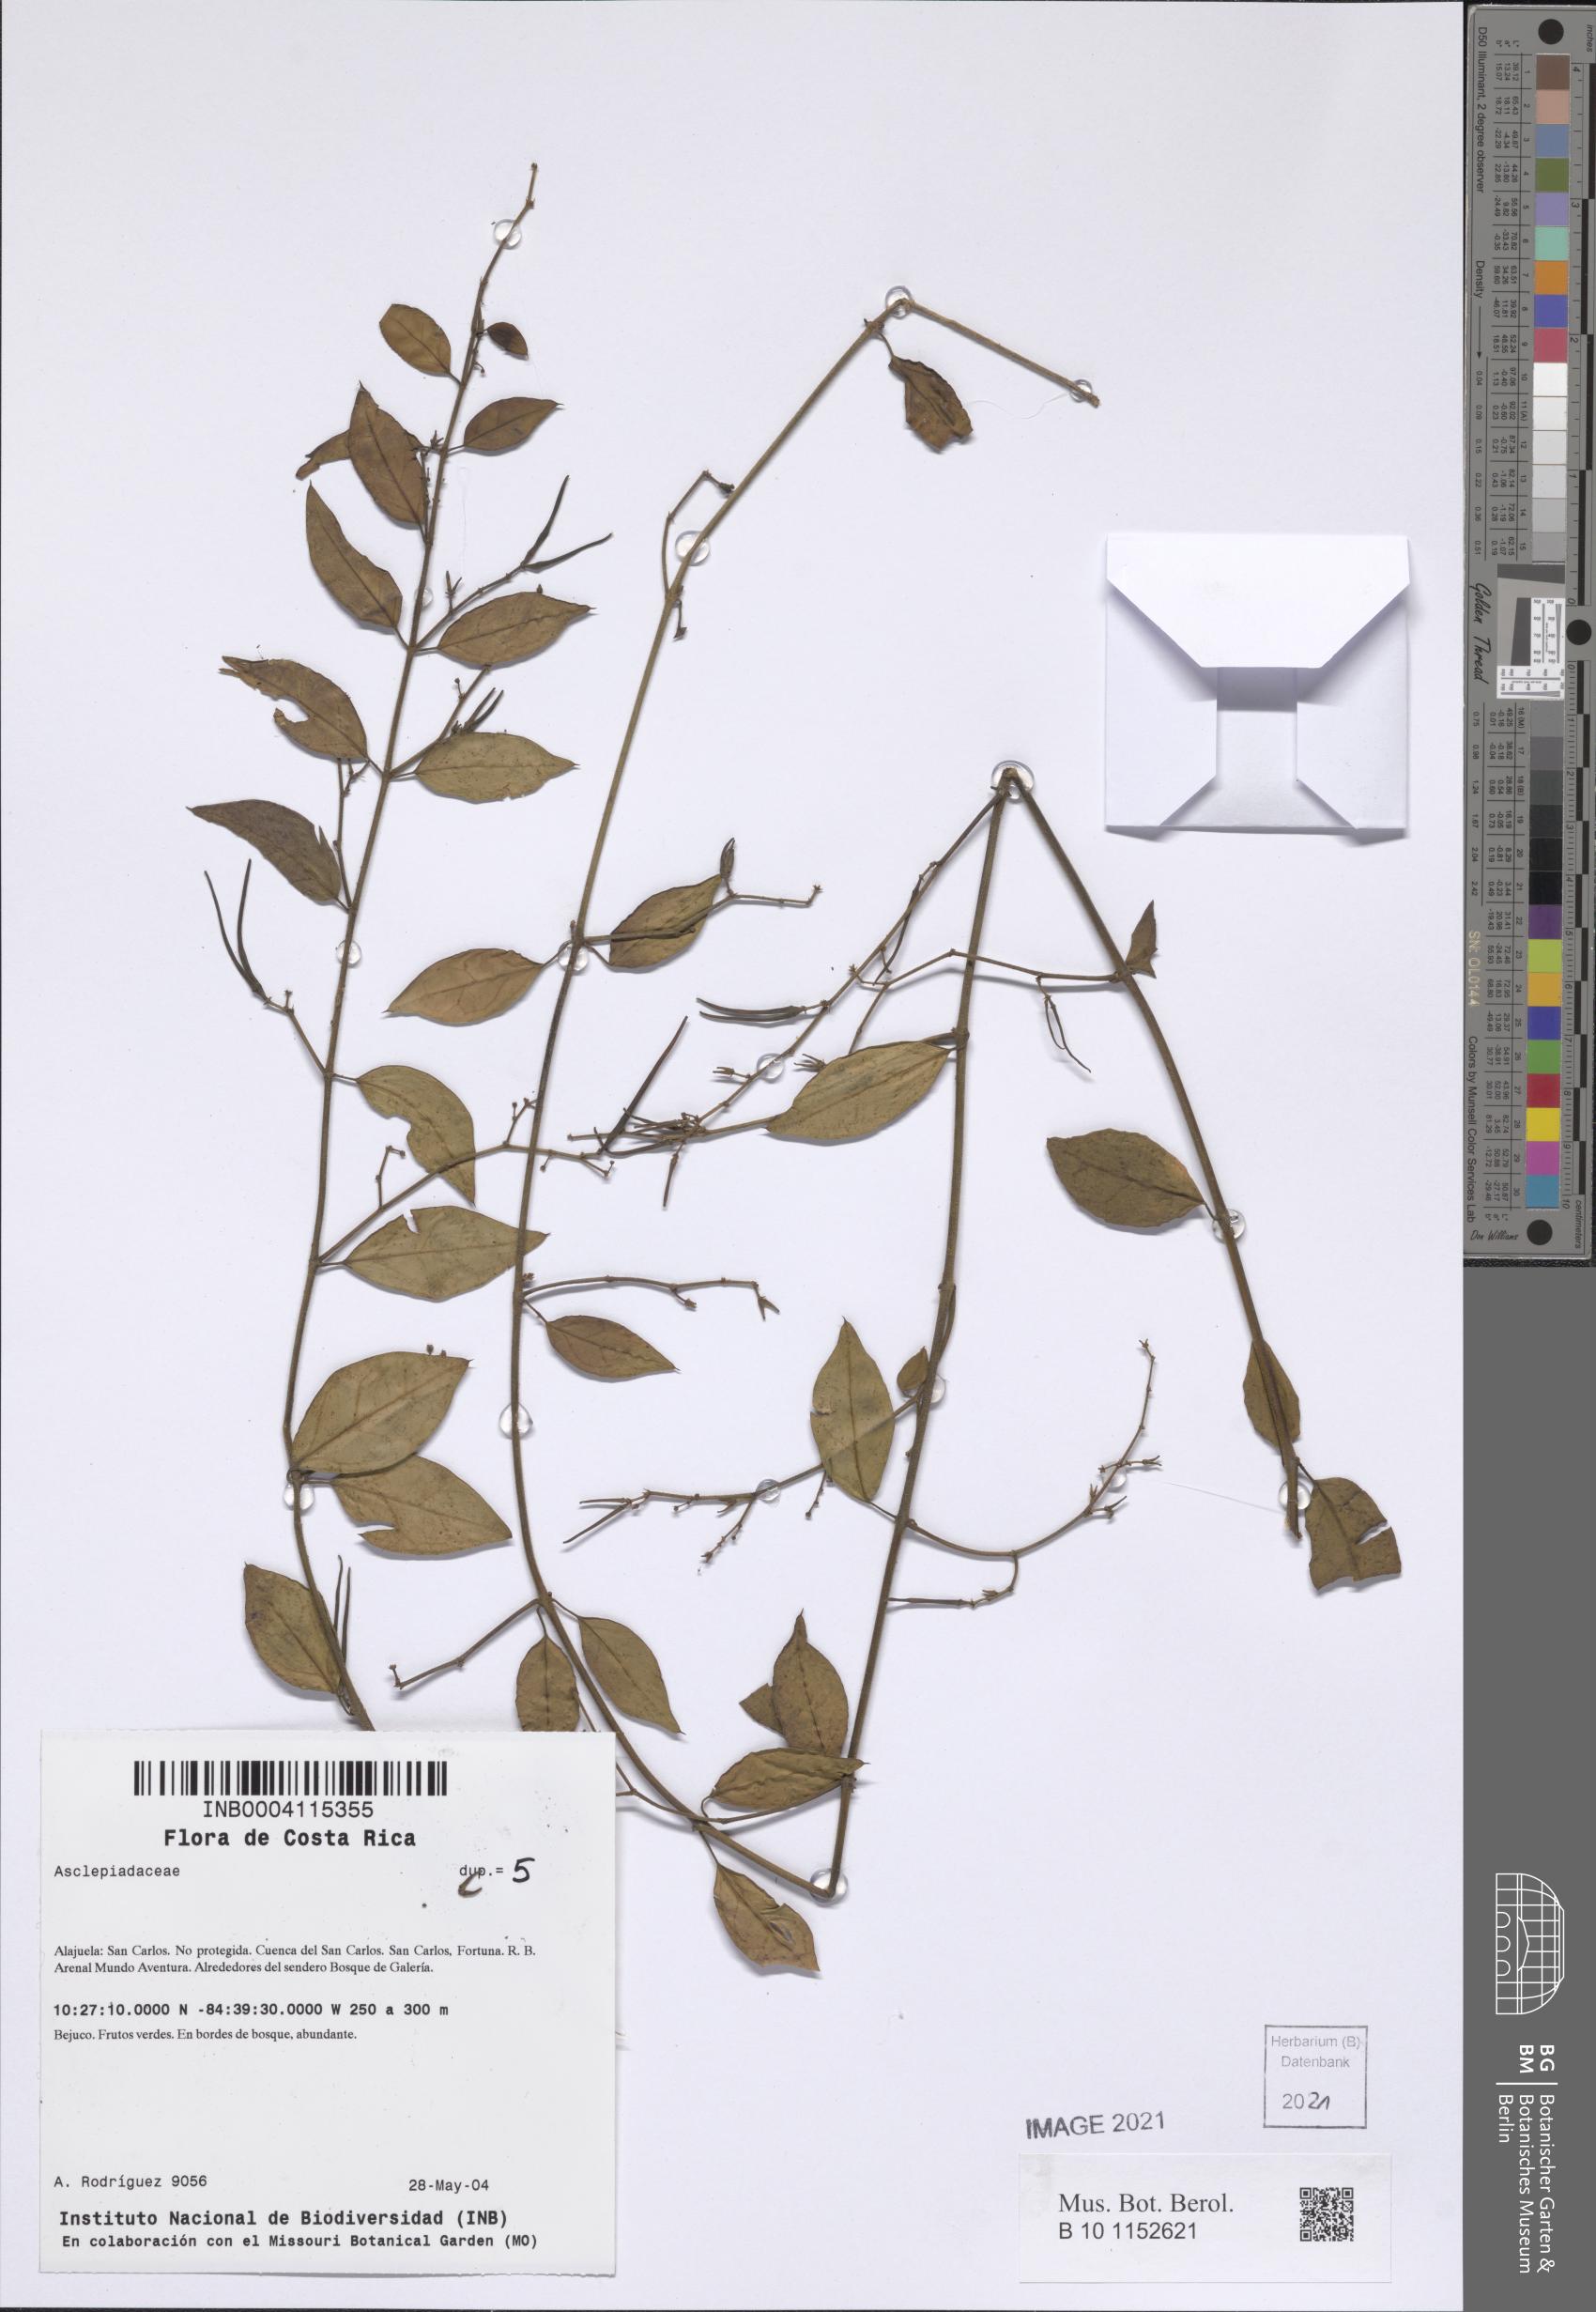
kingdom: Plantae
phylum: Tracheophyta
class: Magnoliopsida
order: Gentianales
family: Apocynaceae
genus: Tassadia
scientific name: Tassadia obovata
